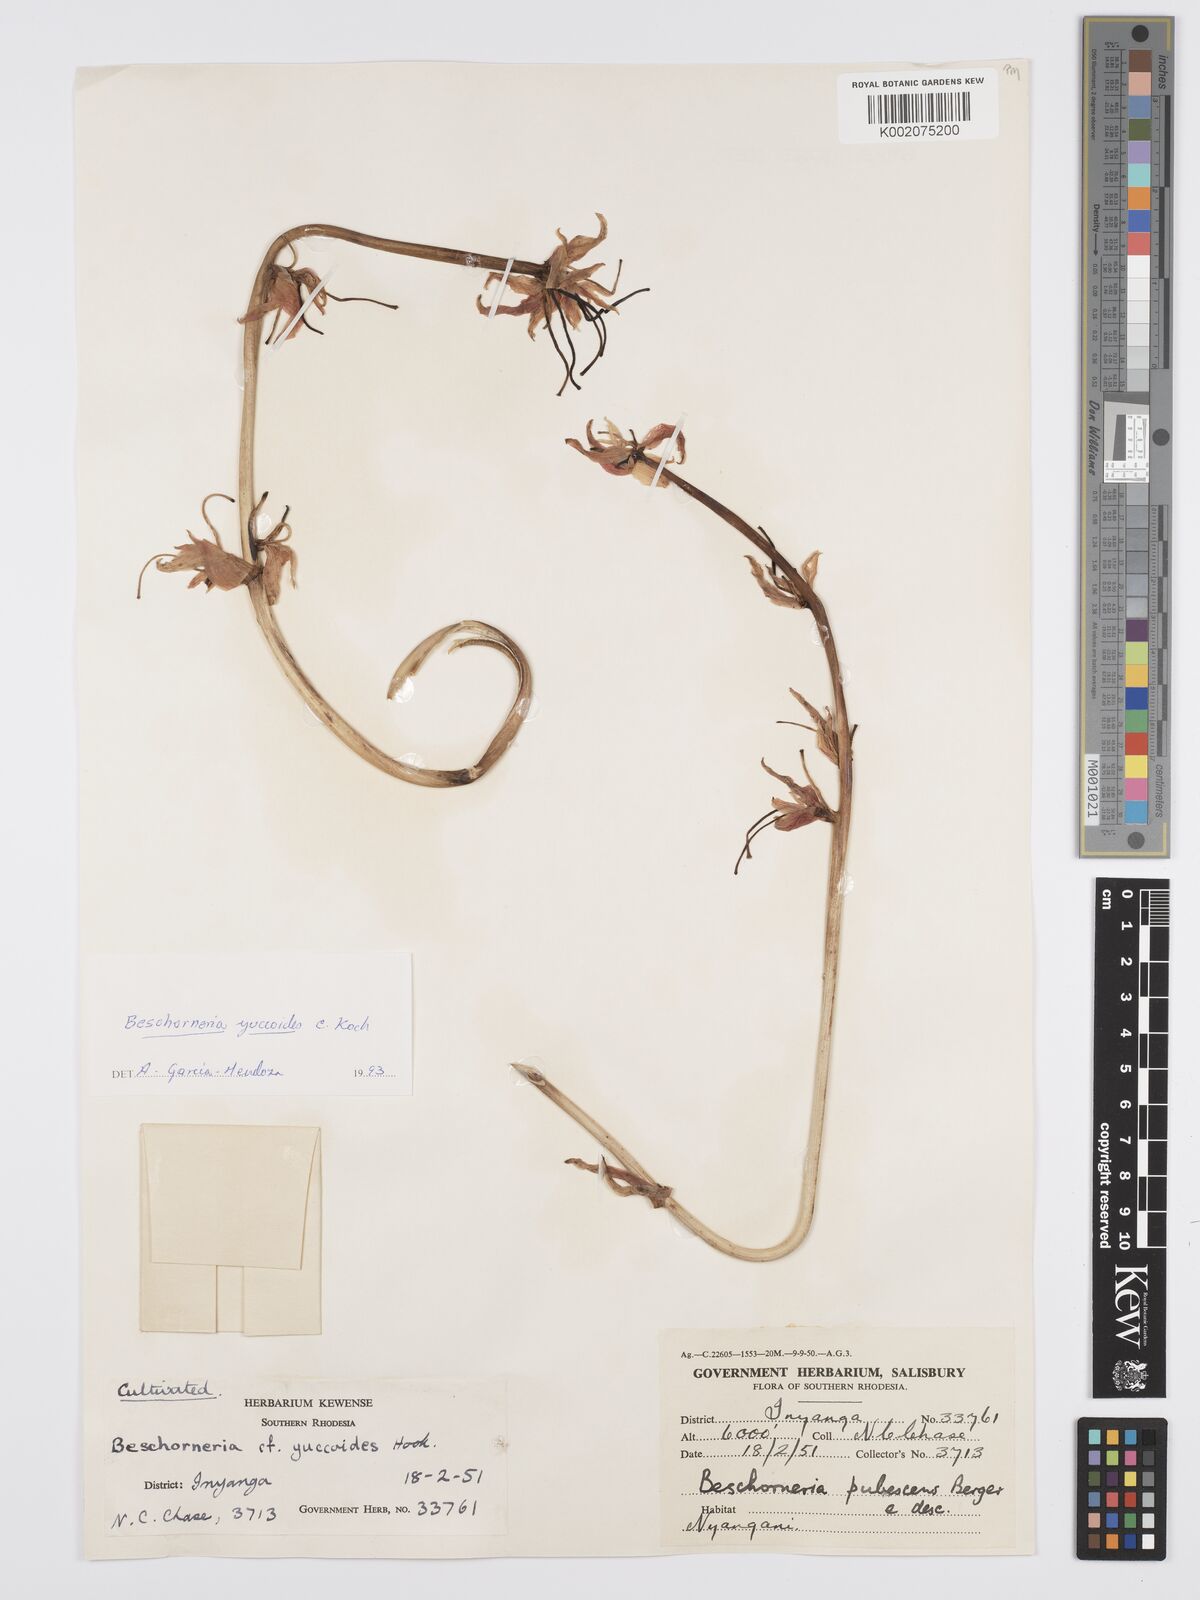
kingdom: Plantae
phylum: Tracheophyta
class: Liliopsida
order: Asparagales
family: Asparagaceae
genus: Beschorneria
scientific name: Beschorneria yuccoides
